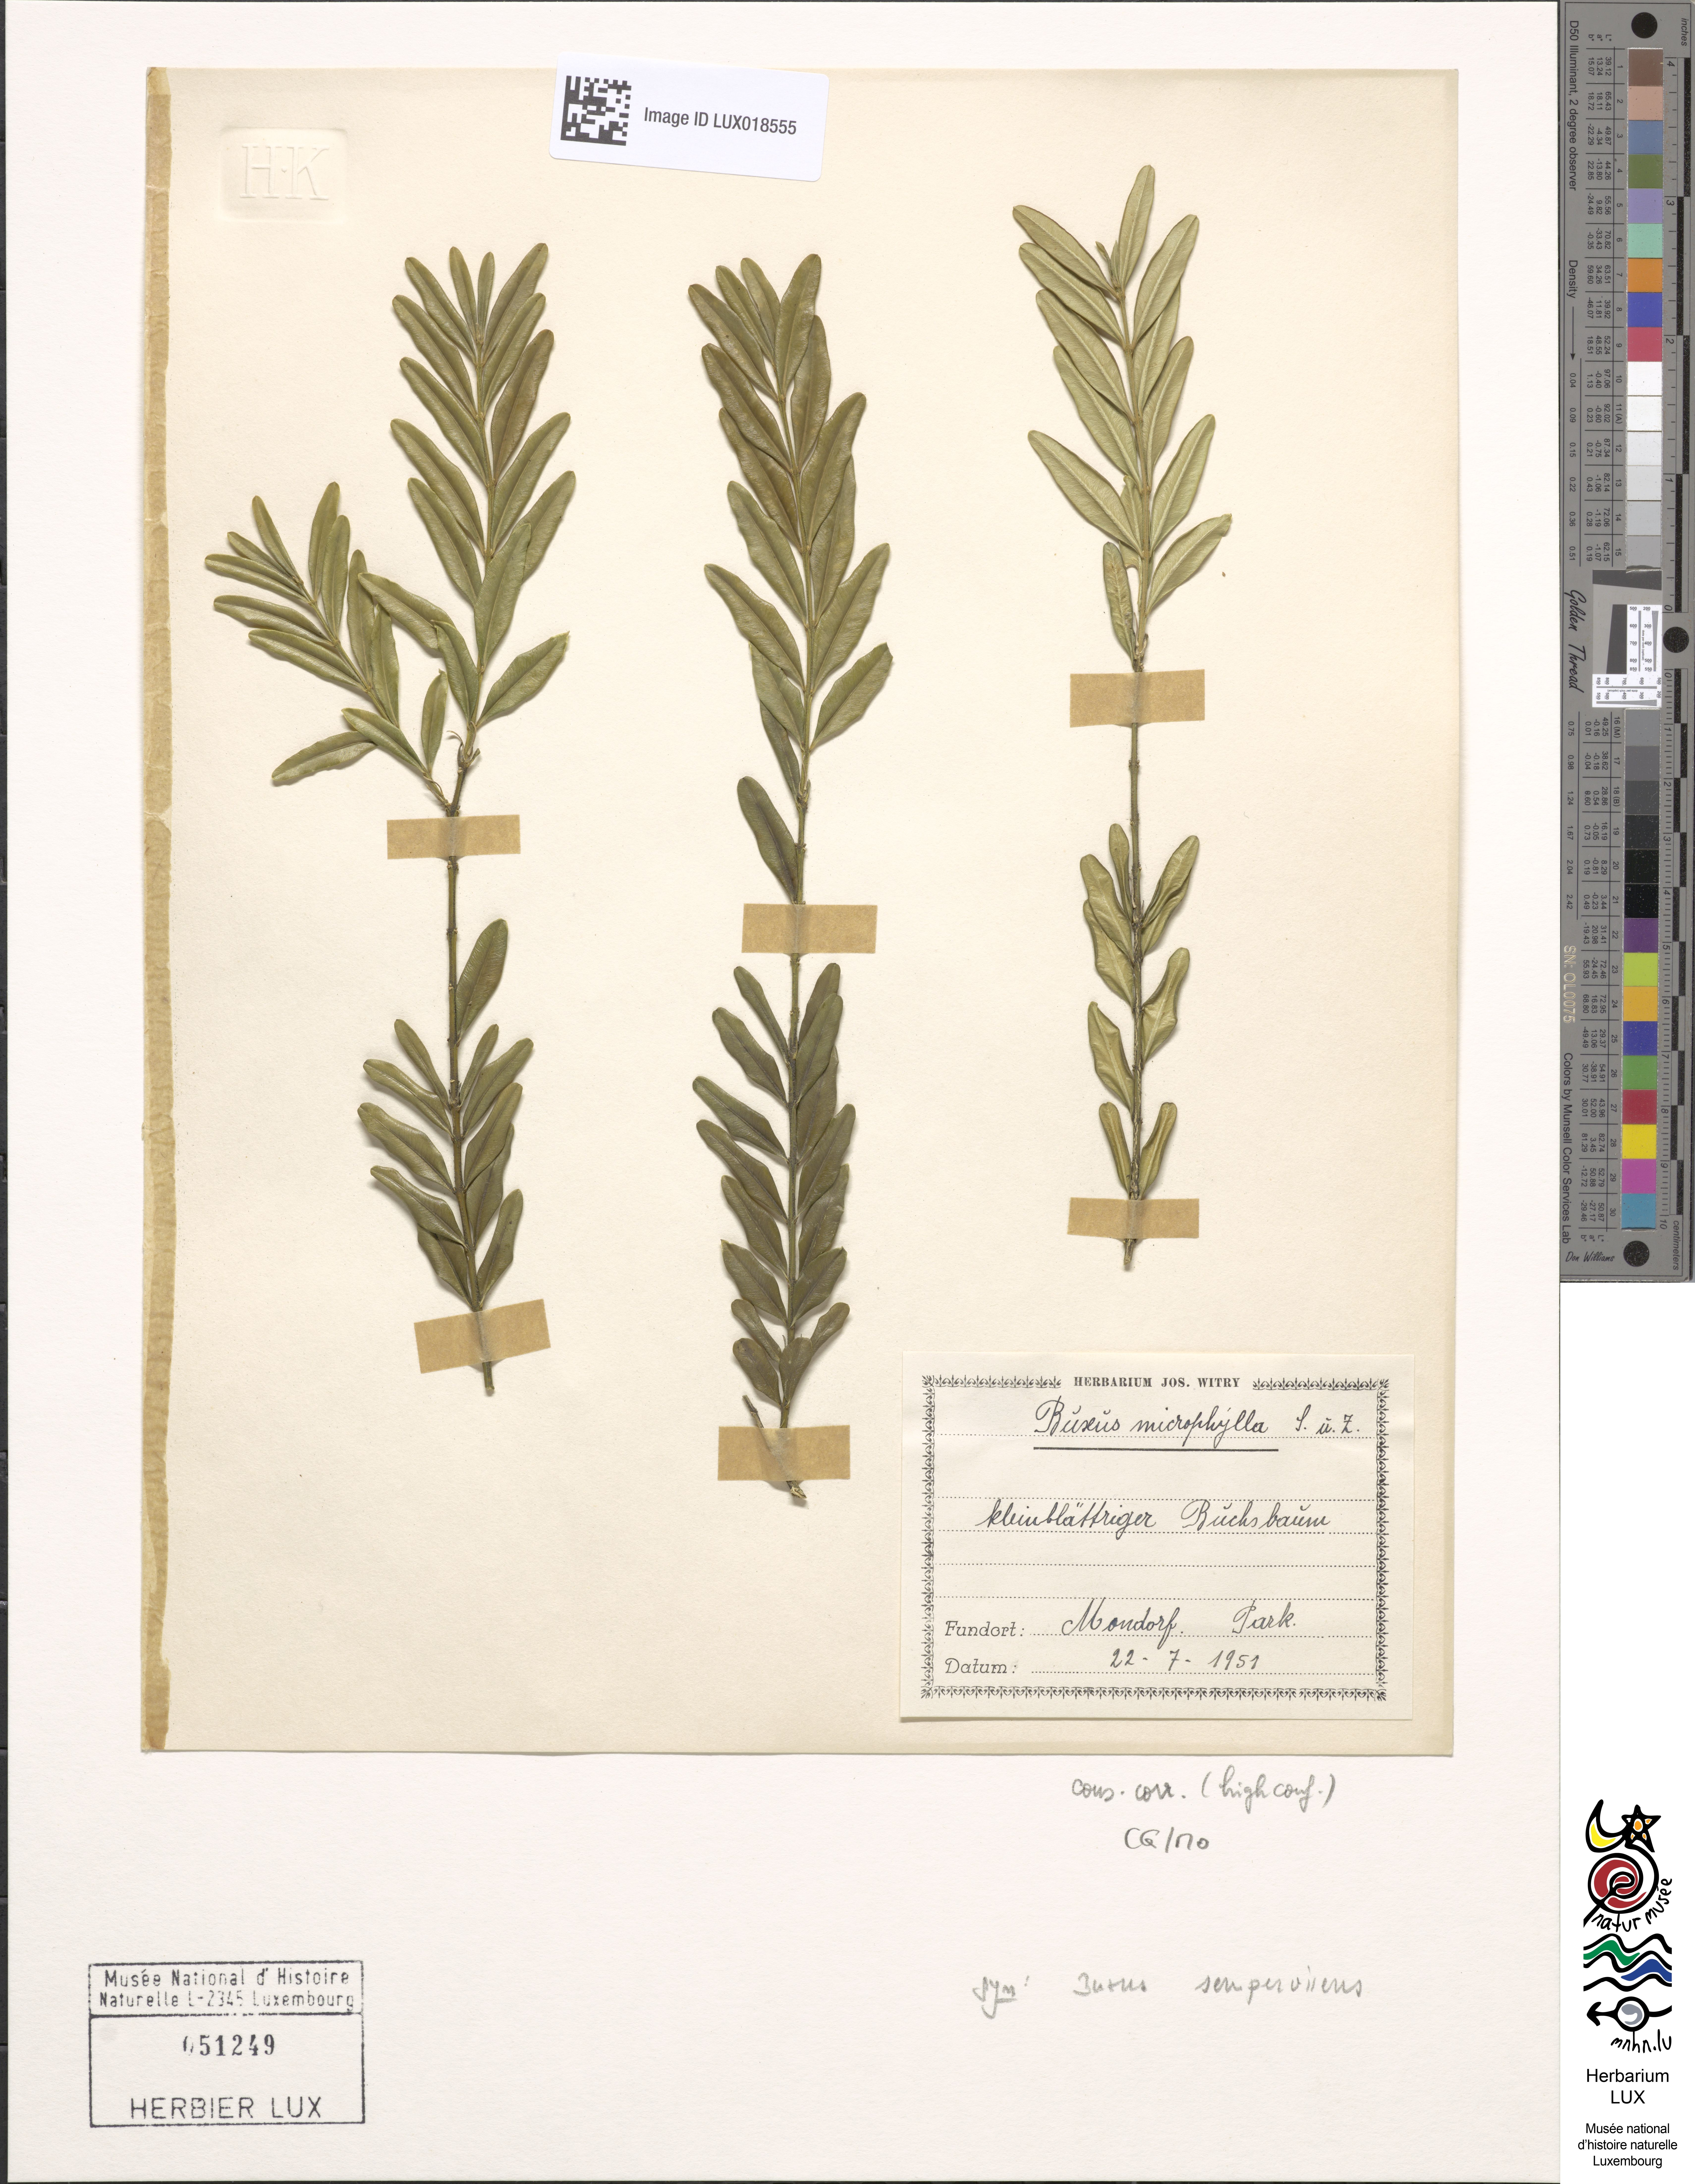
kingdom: Plantae
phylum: Tracheophyta
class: Magnoliopsida
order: Buxales
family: Buxaceae
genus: Buxus
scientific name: Buxus sempervirens
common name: Box
